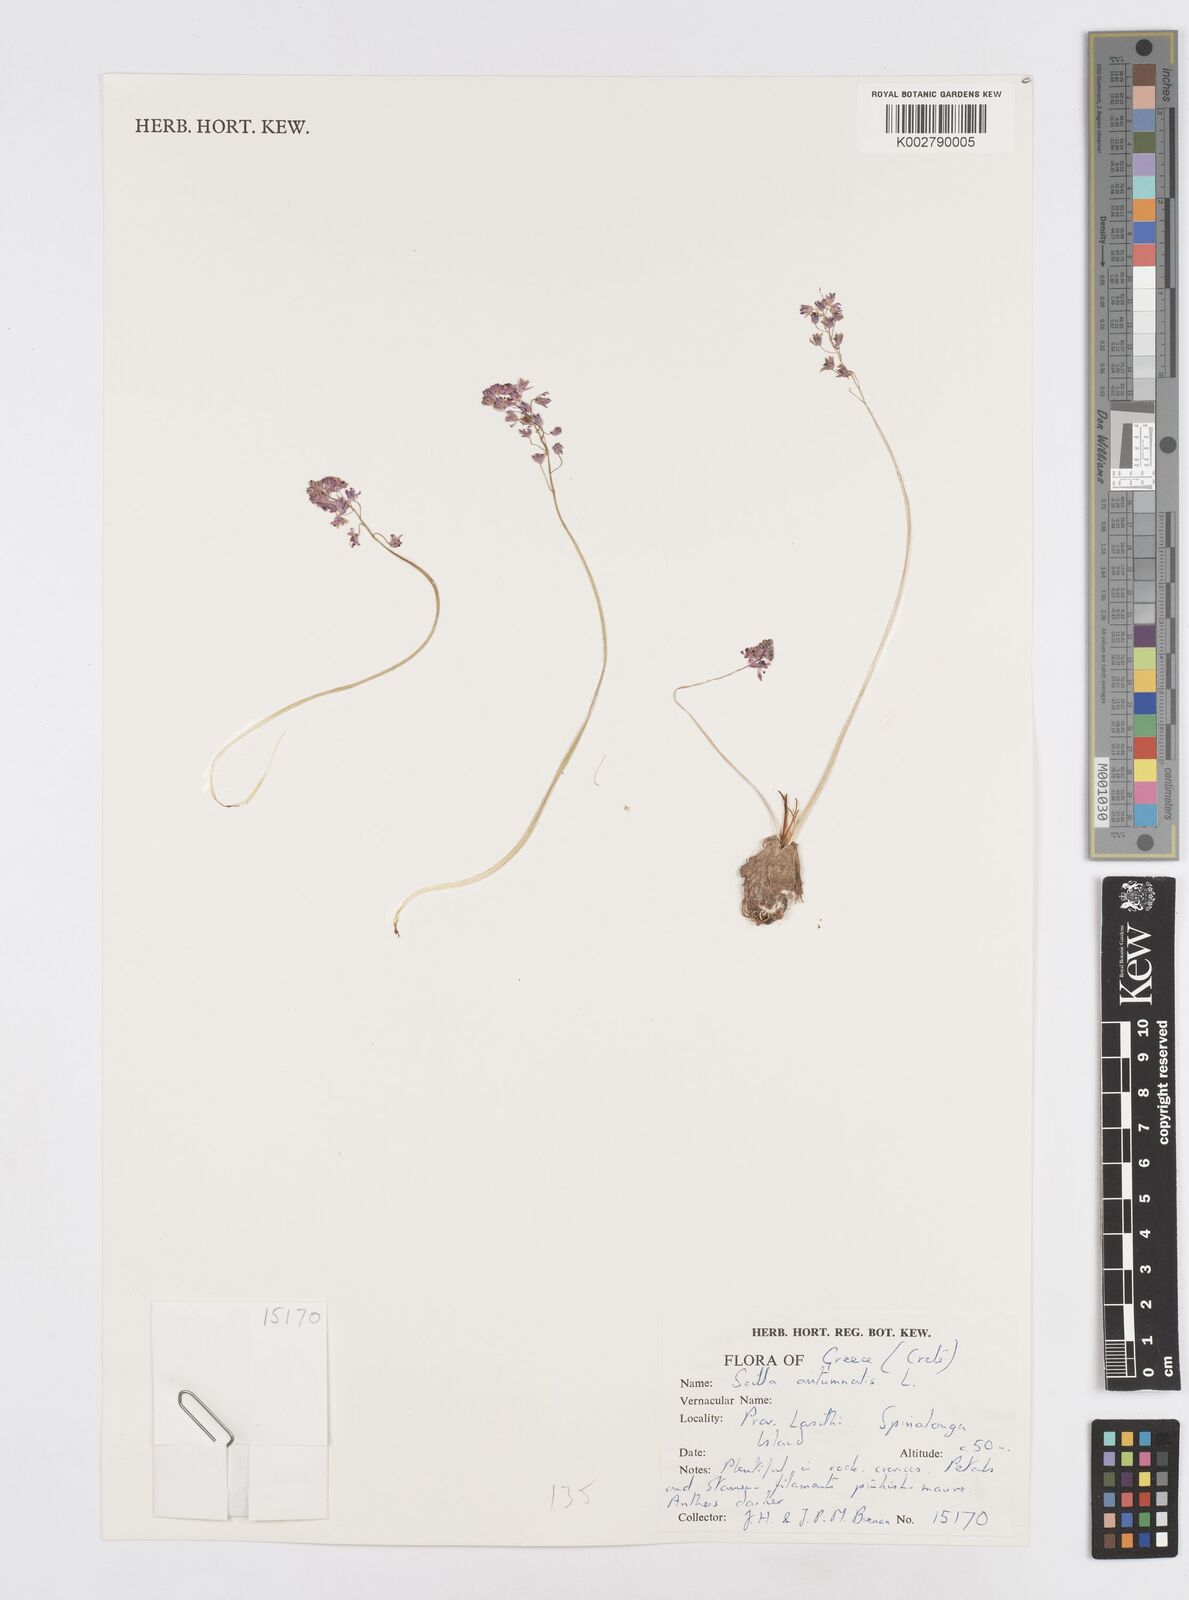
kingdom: Plantae
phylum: Tracheophyta
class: Liliopsida
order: Asparagales
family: Asparagaceae
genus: Prospero
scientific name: Prospero autumnale
